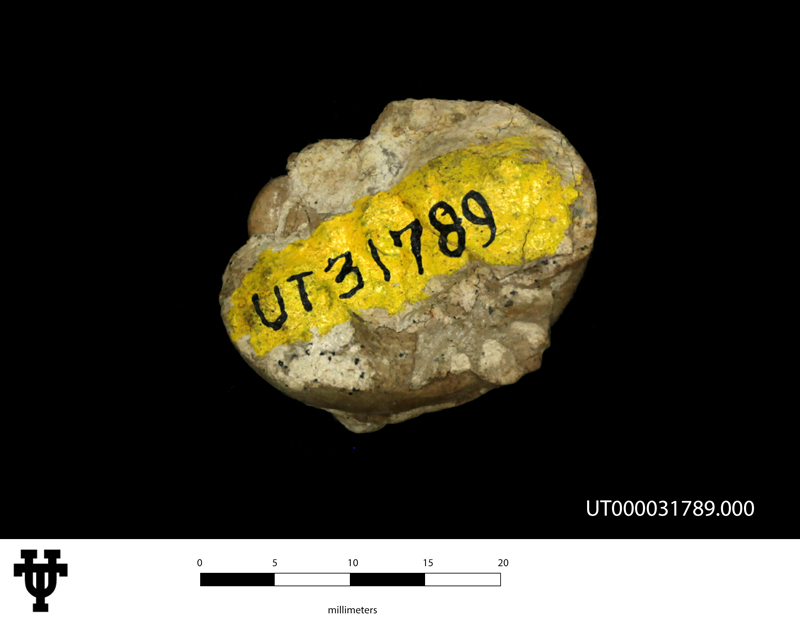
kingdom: Animalia
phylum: Mollusca
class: Gastropoda
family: Gyrodidae
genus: Gyrodes
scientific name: Gyrodes
